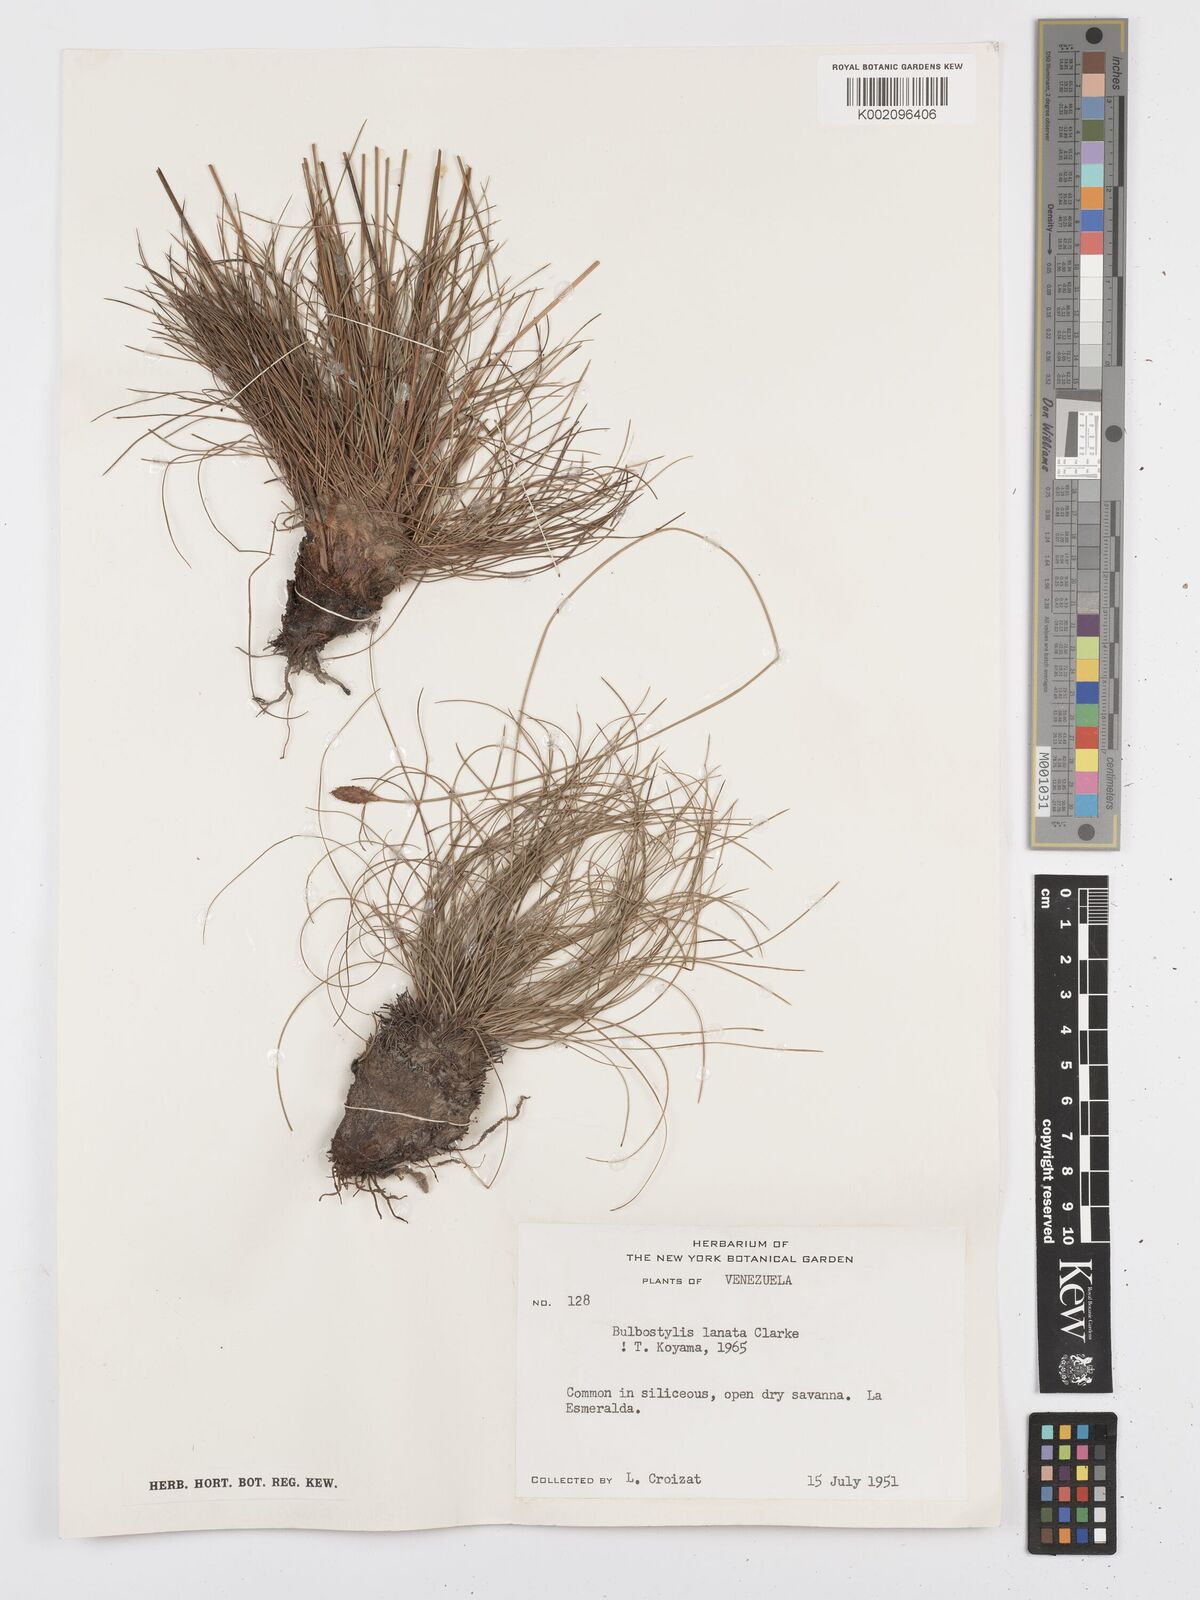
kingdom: Plantae
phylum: Tracheophyta
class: Liliopsida
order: Poales
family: Cyperaceae
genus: Bulbostylis
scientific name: Bulbostylis lanata
